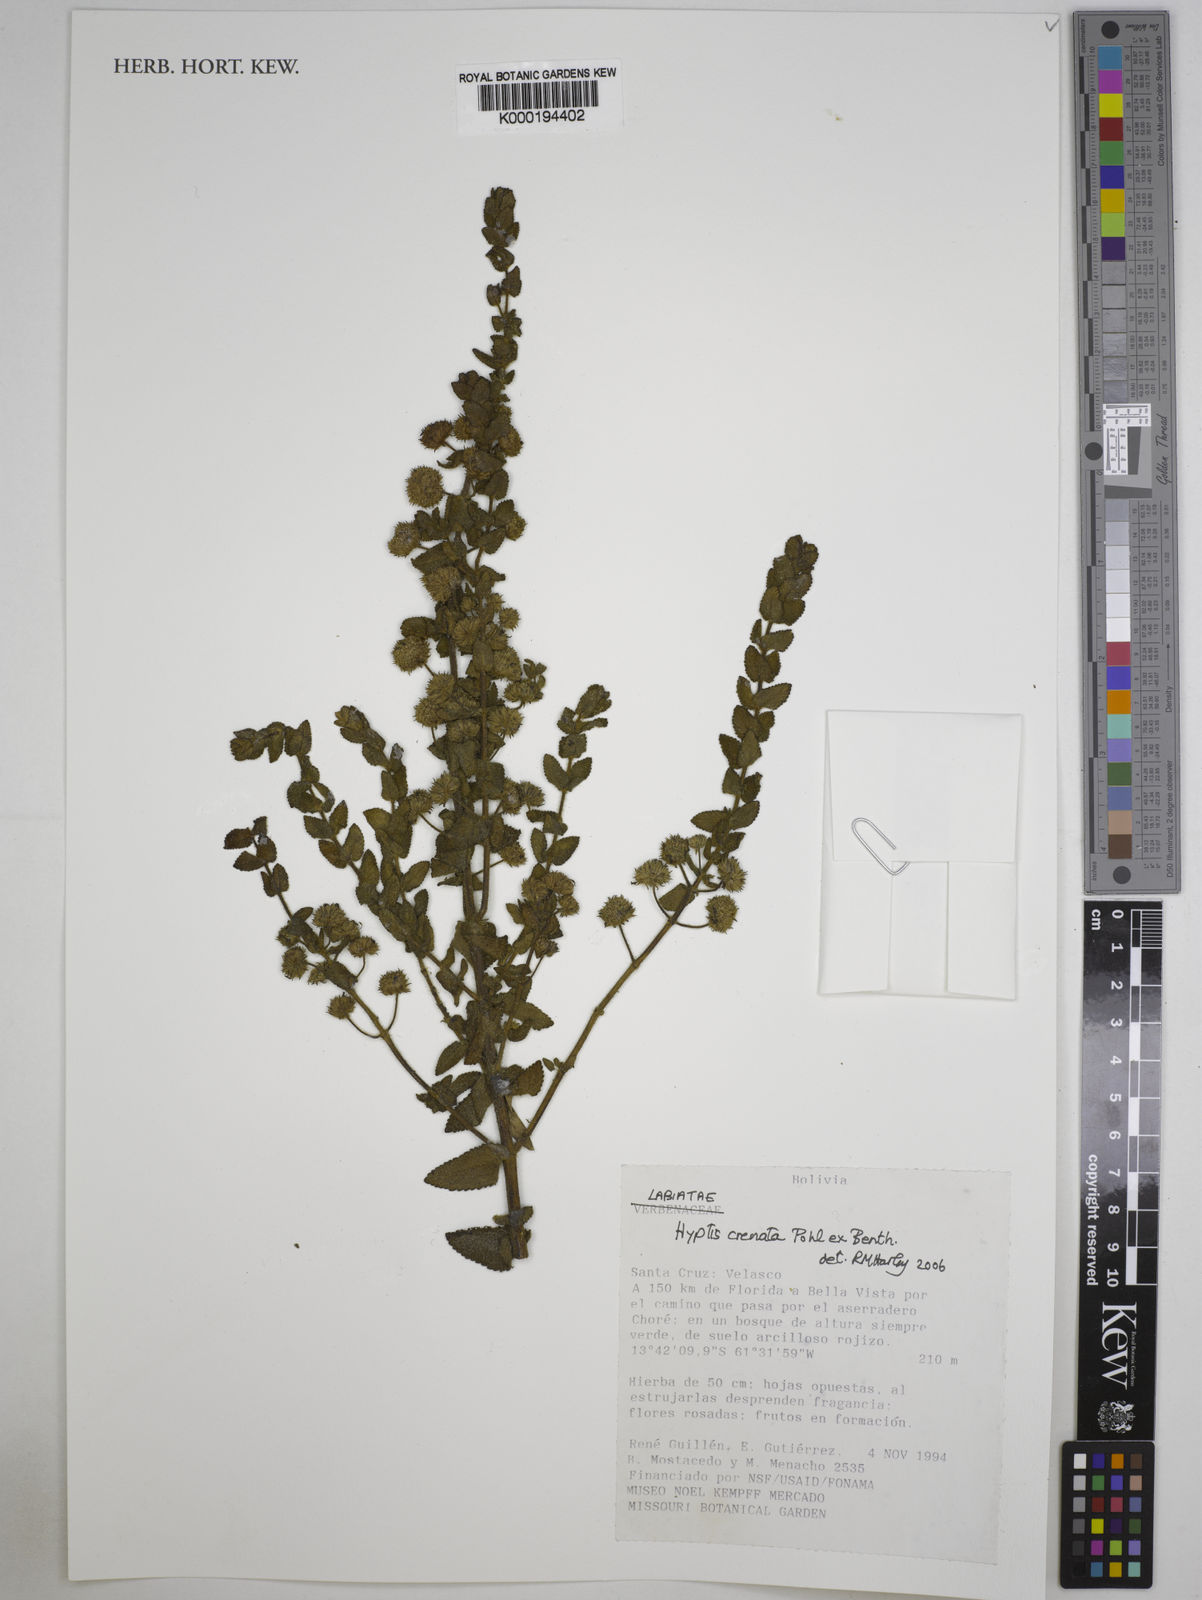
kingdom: Plantae
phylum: Tracheophyta
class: Magnoliopsida
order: Lamiales
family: Lamiaceae
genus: Hyptis
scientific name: Hyptis crenata
